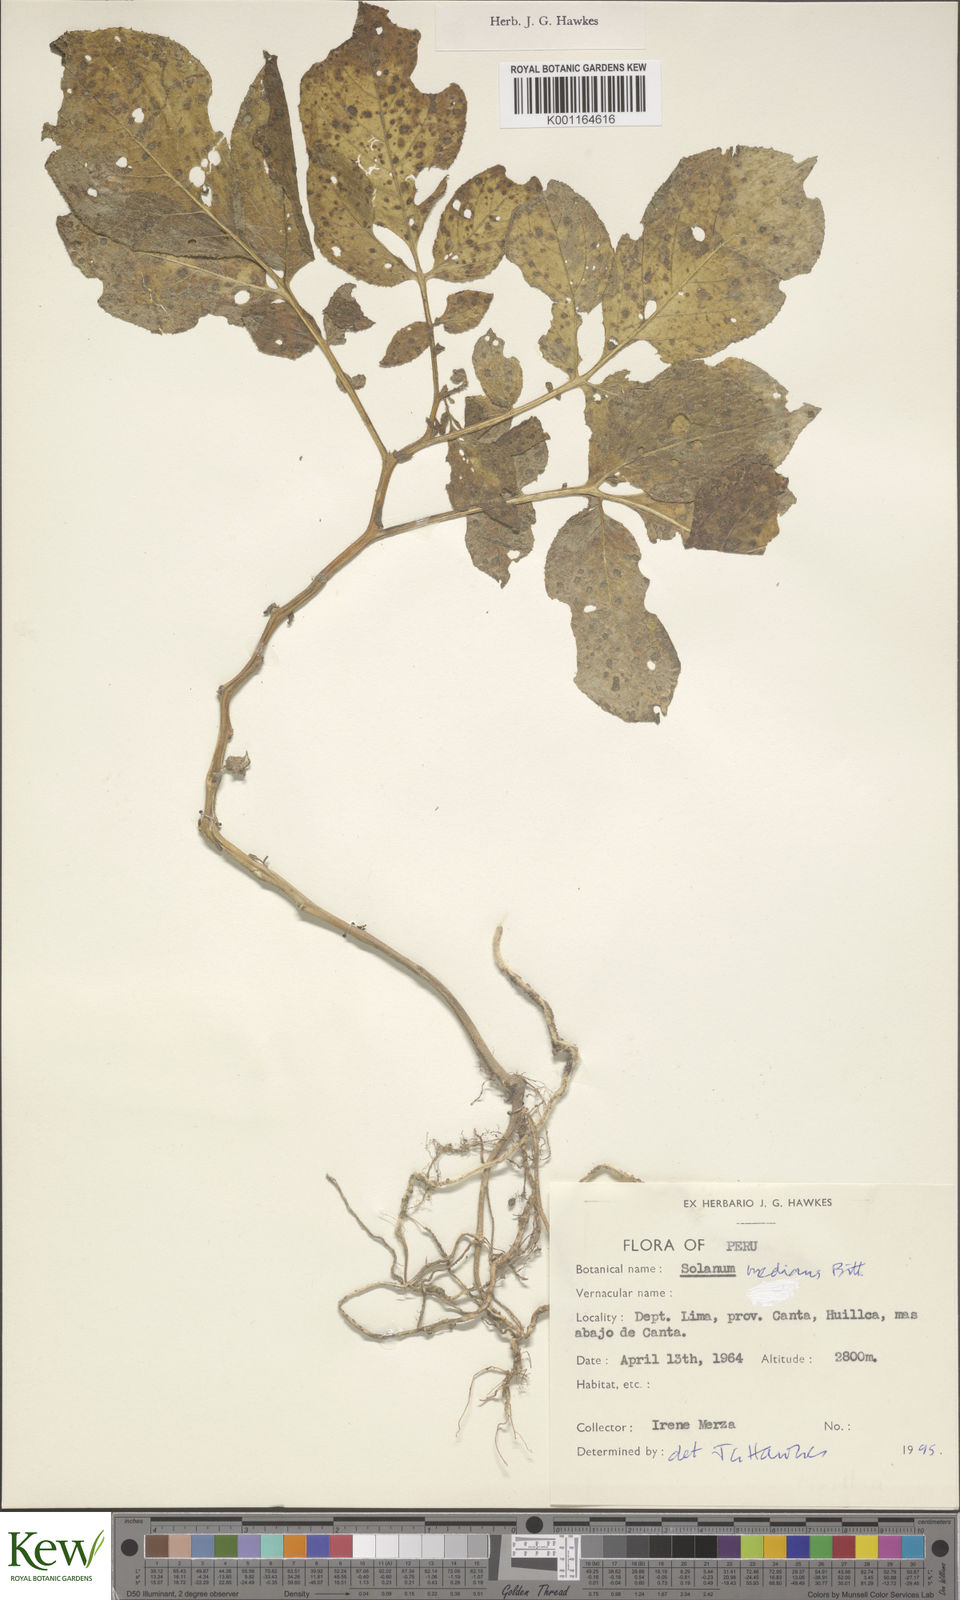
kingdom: Plantae
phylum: Tracheophyta
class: Magnoliopsida
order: Solanales
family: Solanaceae
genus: Solanum
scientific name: Solanum medians
